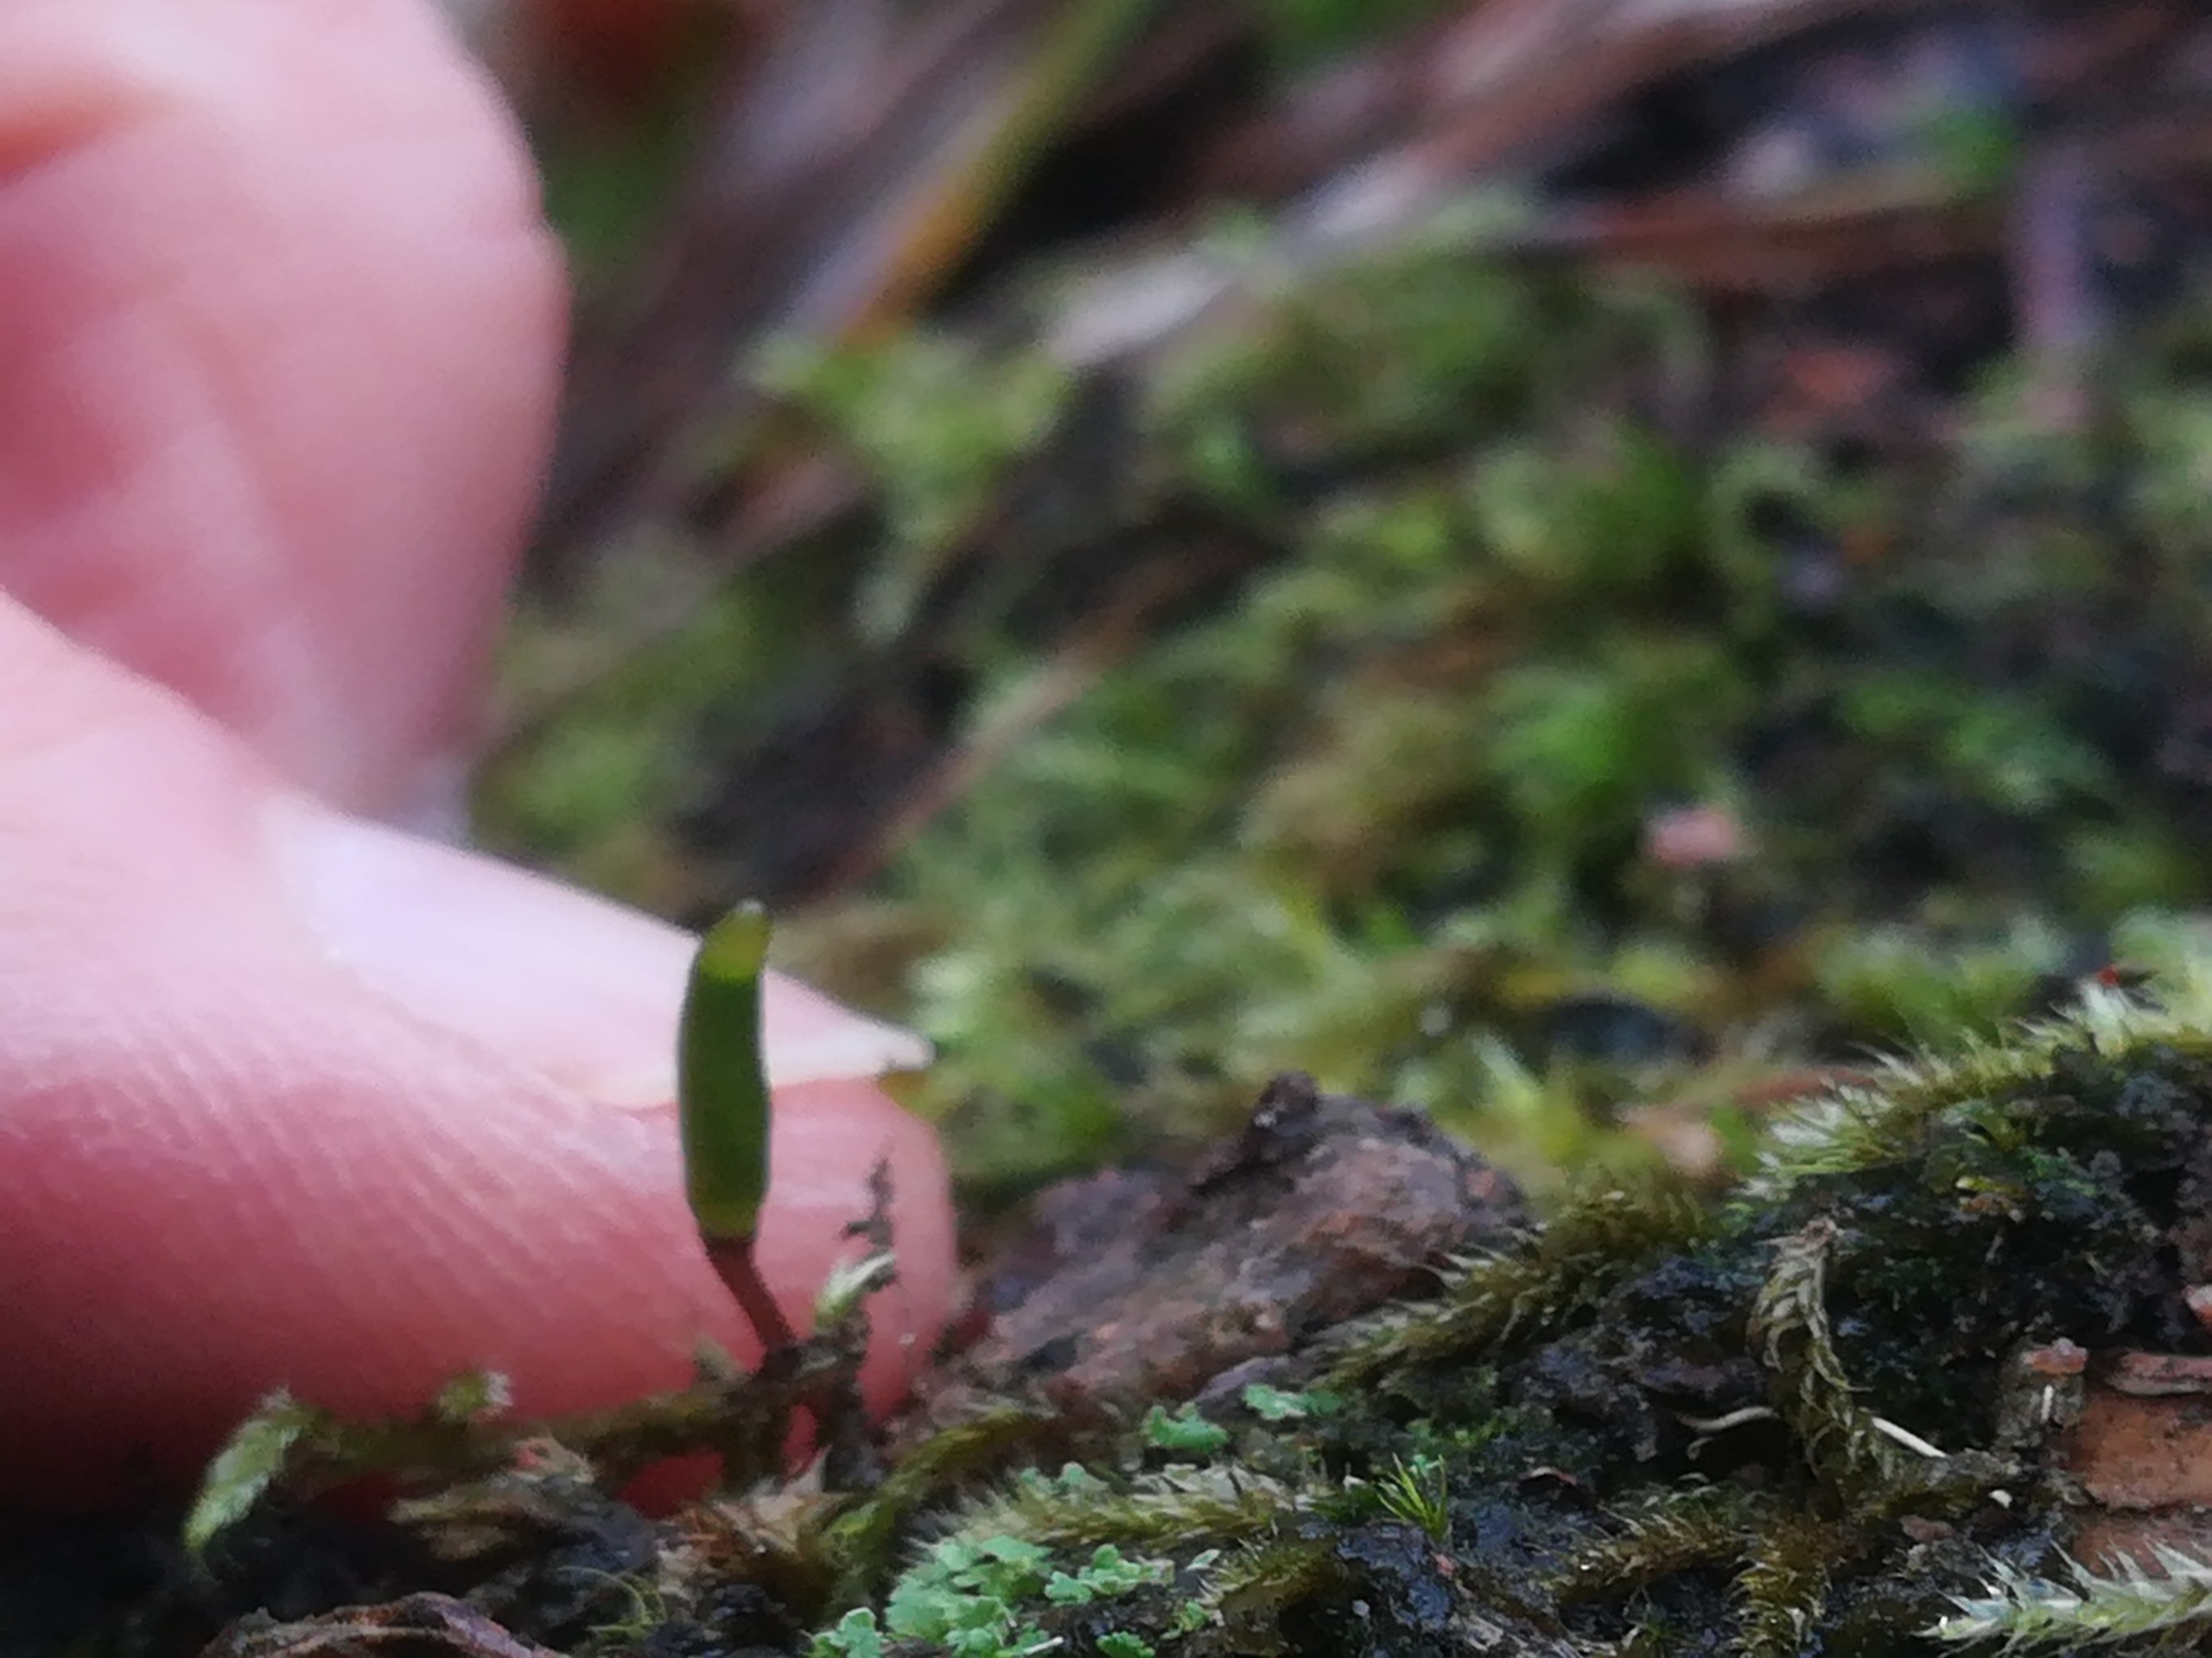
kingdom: Plantae
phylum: Bryophyta
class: Bryopsida
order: Buxbaumiales
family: Buxbaumiaceae
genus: Buxbaumia
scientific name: Buxbaumia viridis
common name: Grøn buxbaumia
